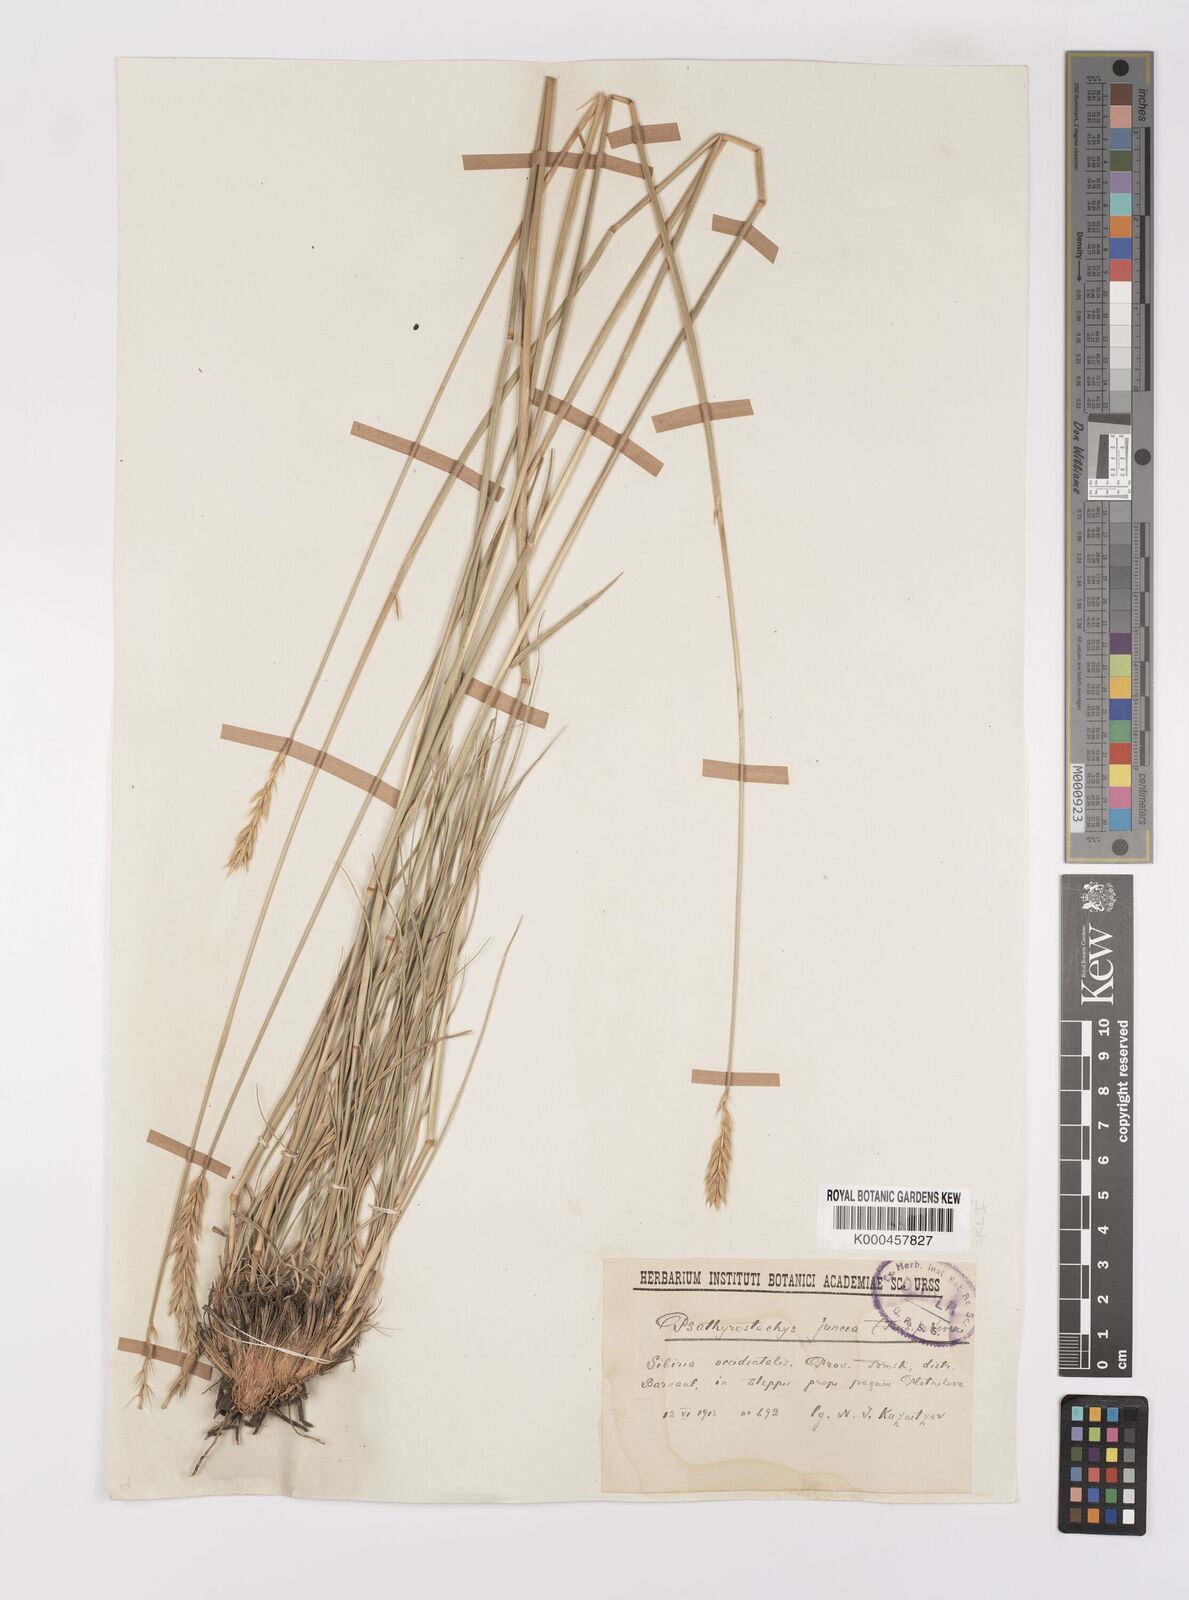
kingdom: Plantae
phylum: Tracheophyta
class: Liliopsida
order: Poales
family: Poaceae
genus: Psathyrostachys
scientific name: Psathyrostachys juncea
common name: Russian wildrye
